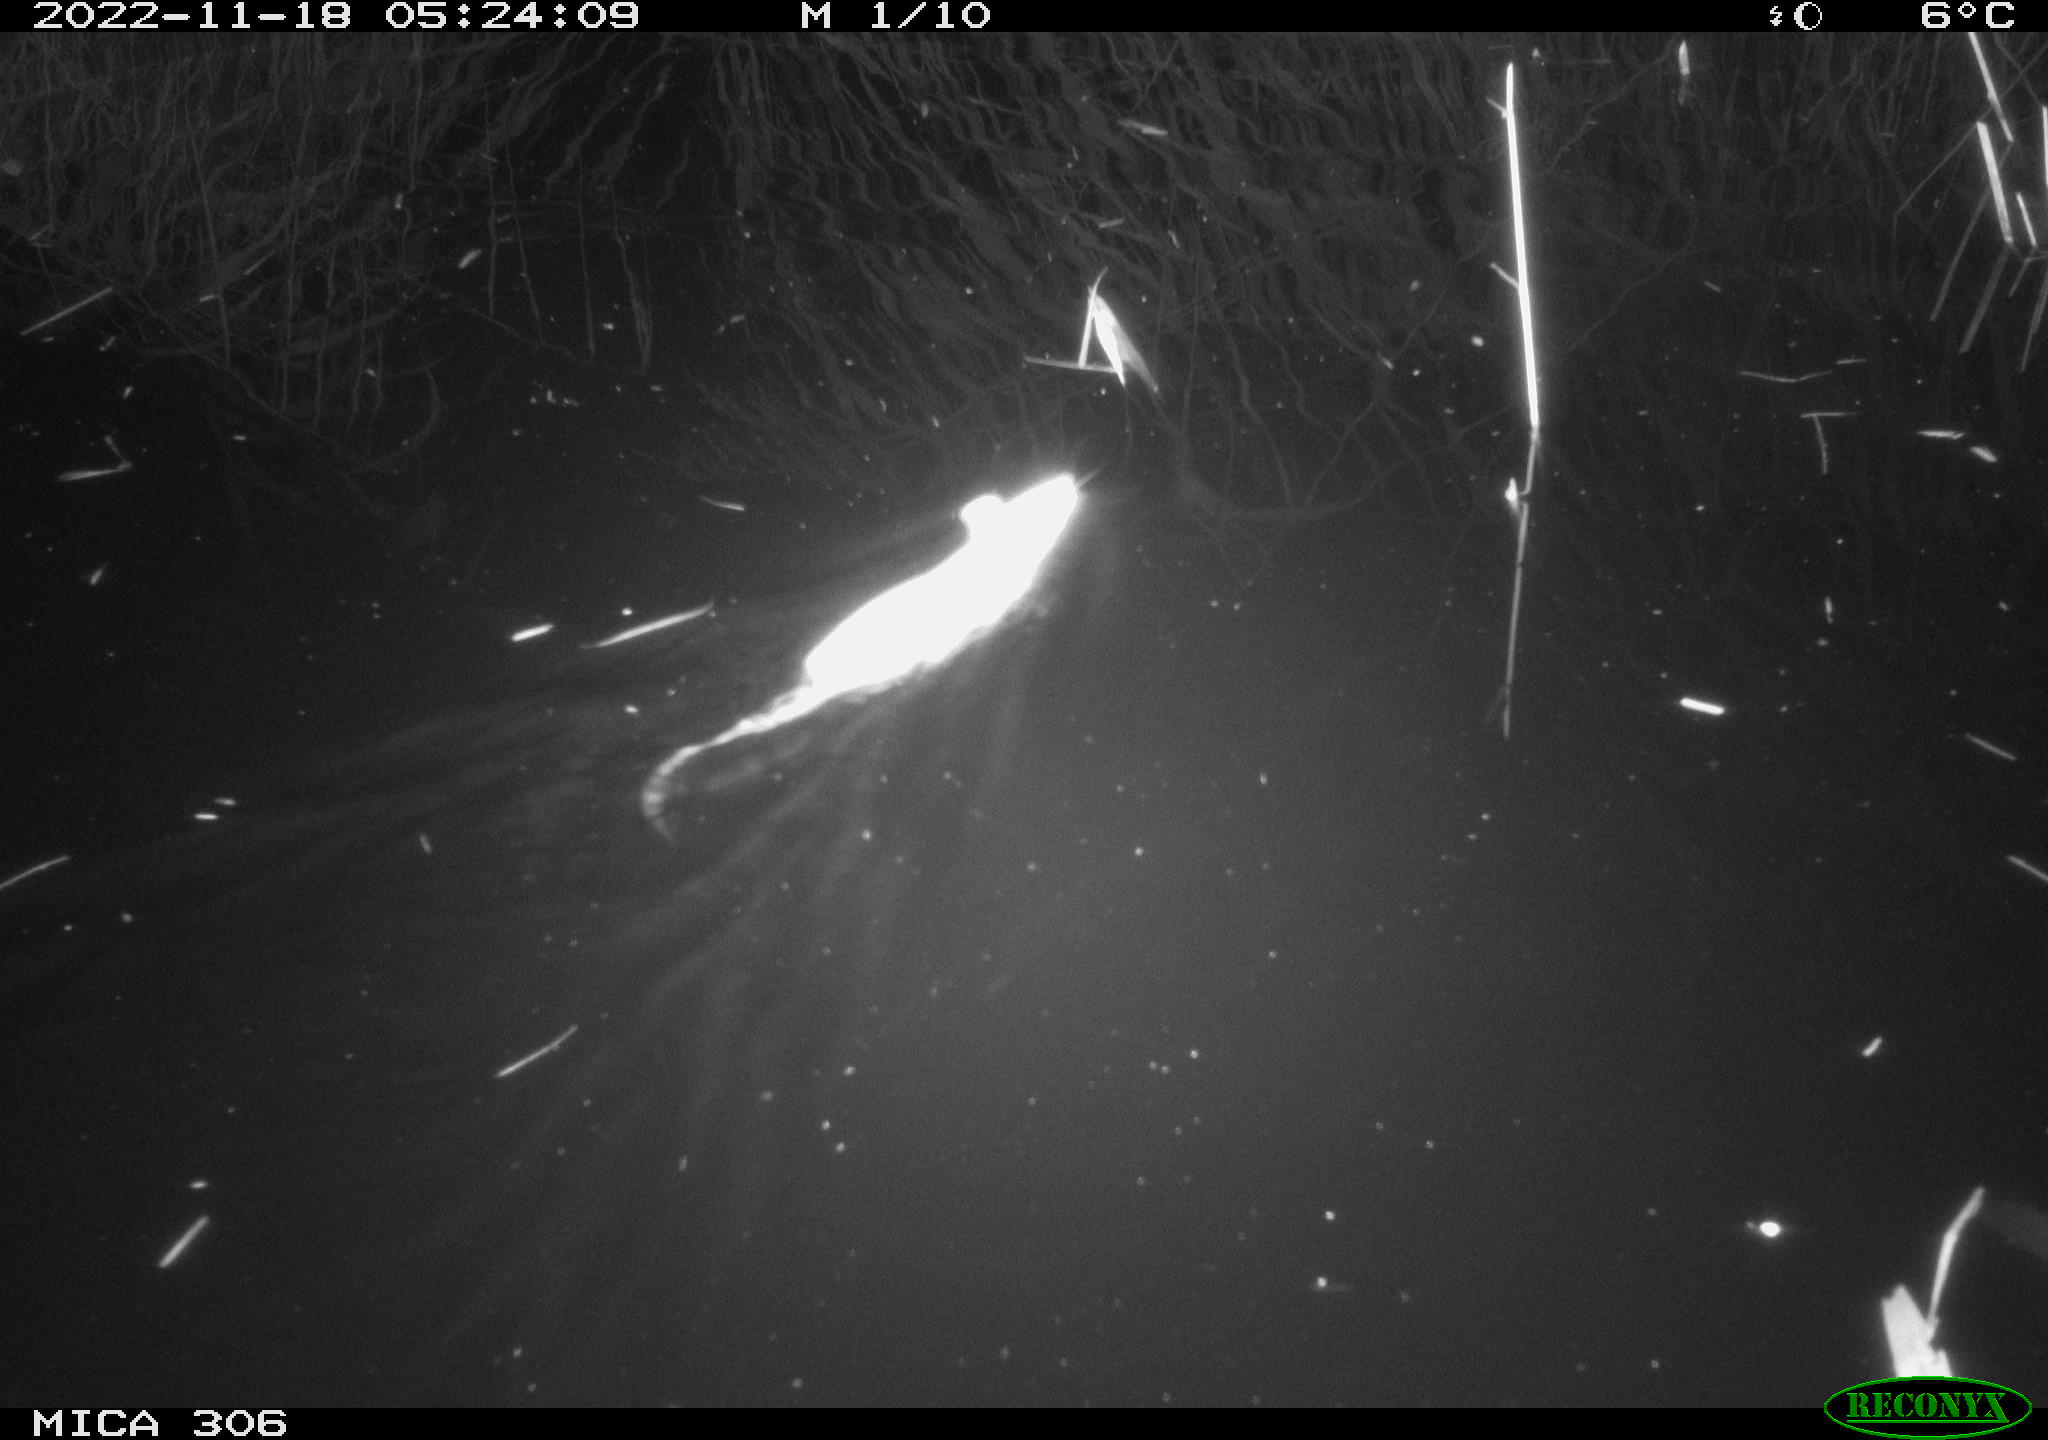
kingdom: Animalia
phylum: Chordata
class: Mammalia
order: Rodentia
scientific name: Rodentia
